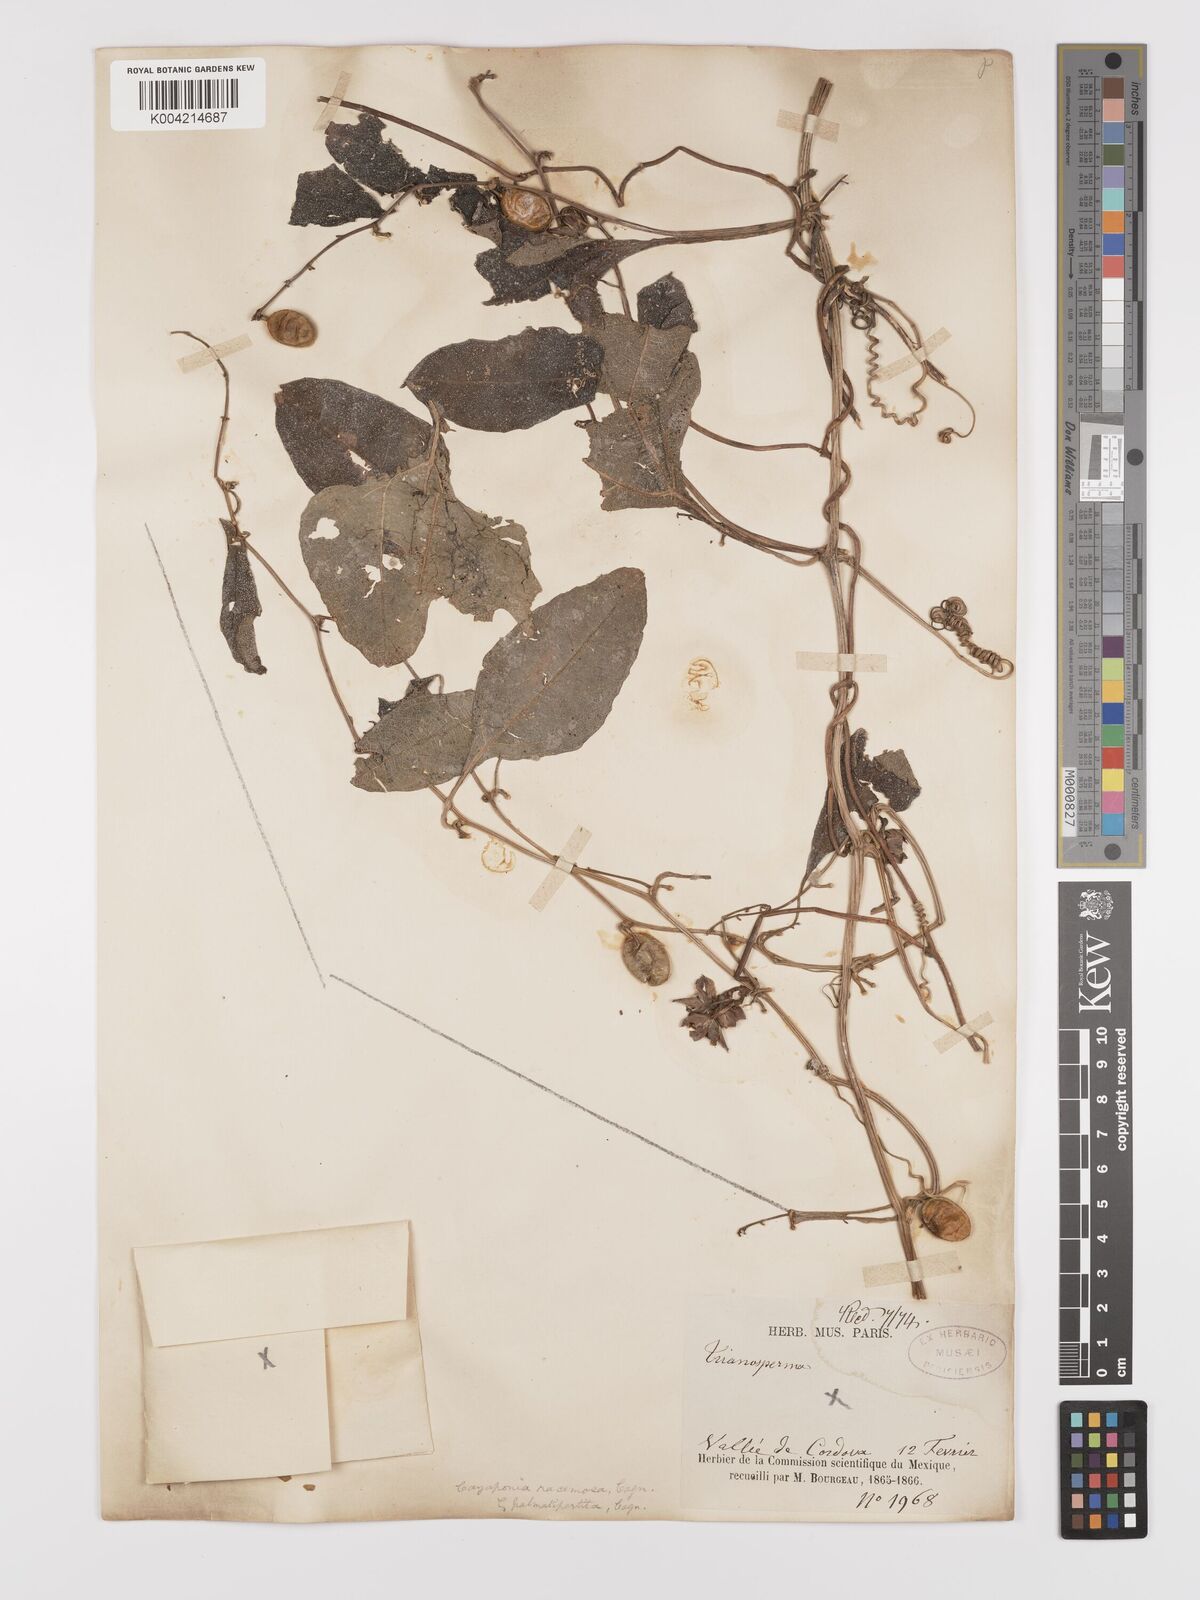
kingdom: Plantae
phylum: Tracheophyta
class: Magnoliopsida
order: Cucurbitales
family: Cucurbitaceae
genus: Cayaponia
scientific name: Cayaponia racemosa
